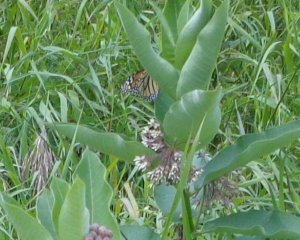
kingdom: Animalia
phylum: Arthropoda
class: Insecta
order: Lepidoptera
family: Nymphalidae
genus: Danaus
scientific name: Danaus plexippus
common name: Monarch
